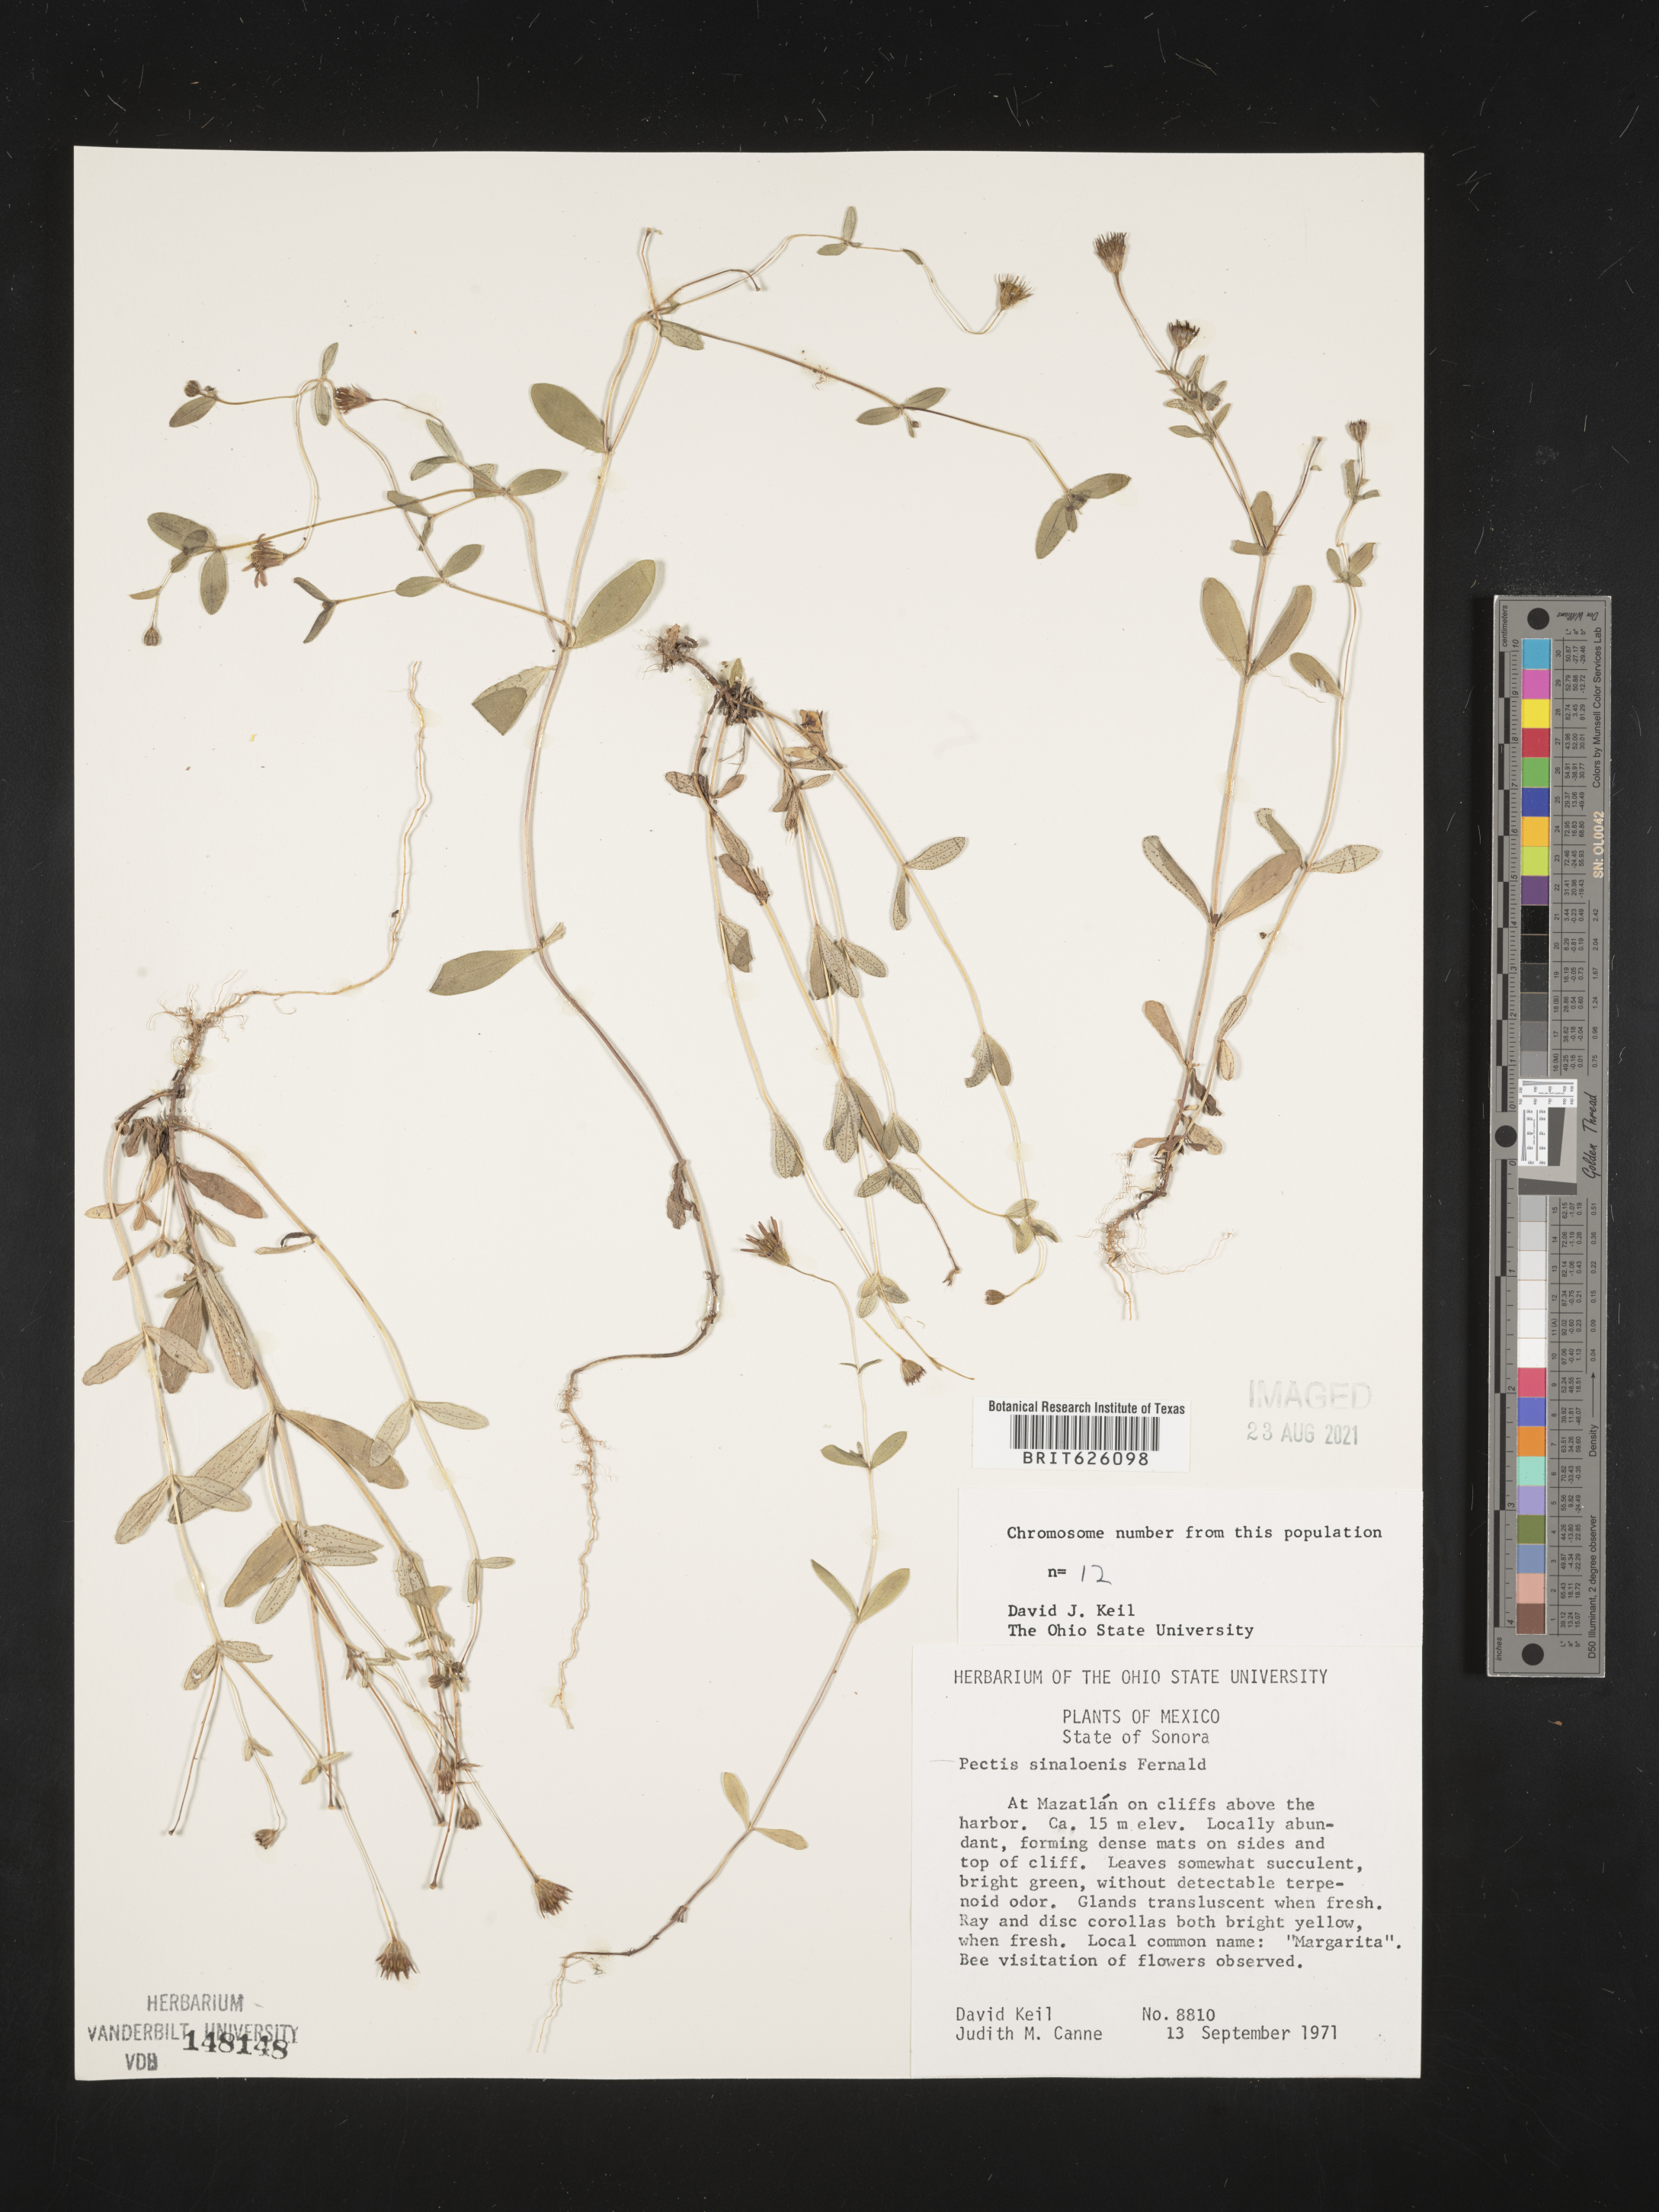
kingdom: Plantae
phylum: Tracheophyta
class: Magnoliopsida
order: Asterales
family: Asteraceae
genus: Pectis
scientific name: Pectis
